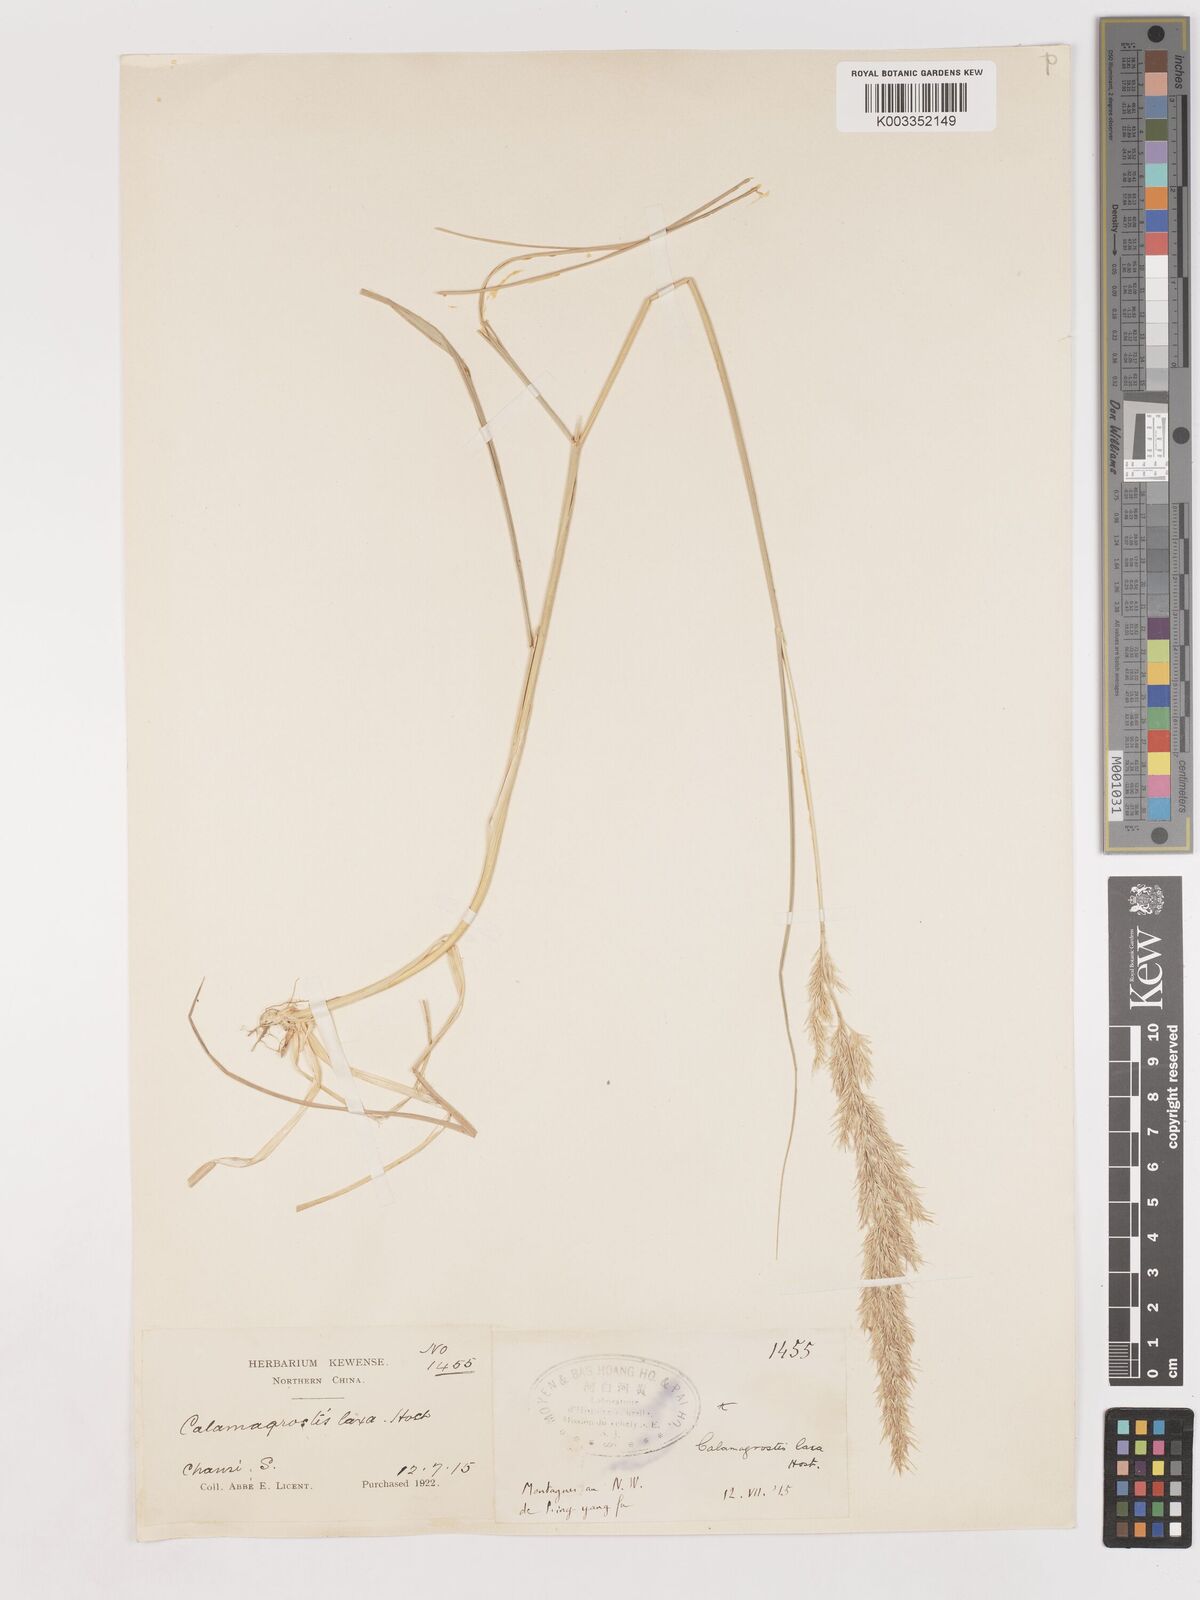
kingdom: Plantae
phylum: Tracheophyta
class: Liliopsida
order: Poales
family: Poaceae
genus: Calamagrostis
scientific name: Calamagrostis pseudophragmites
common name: Coastal small-reed
